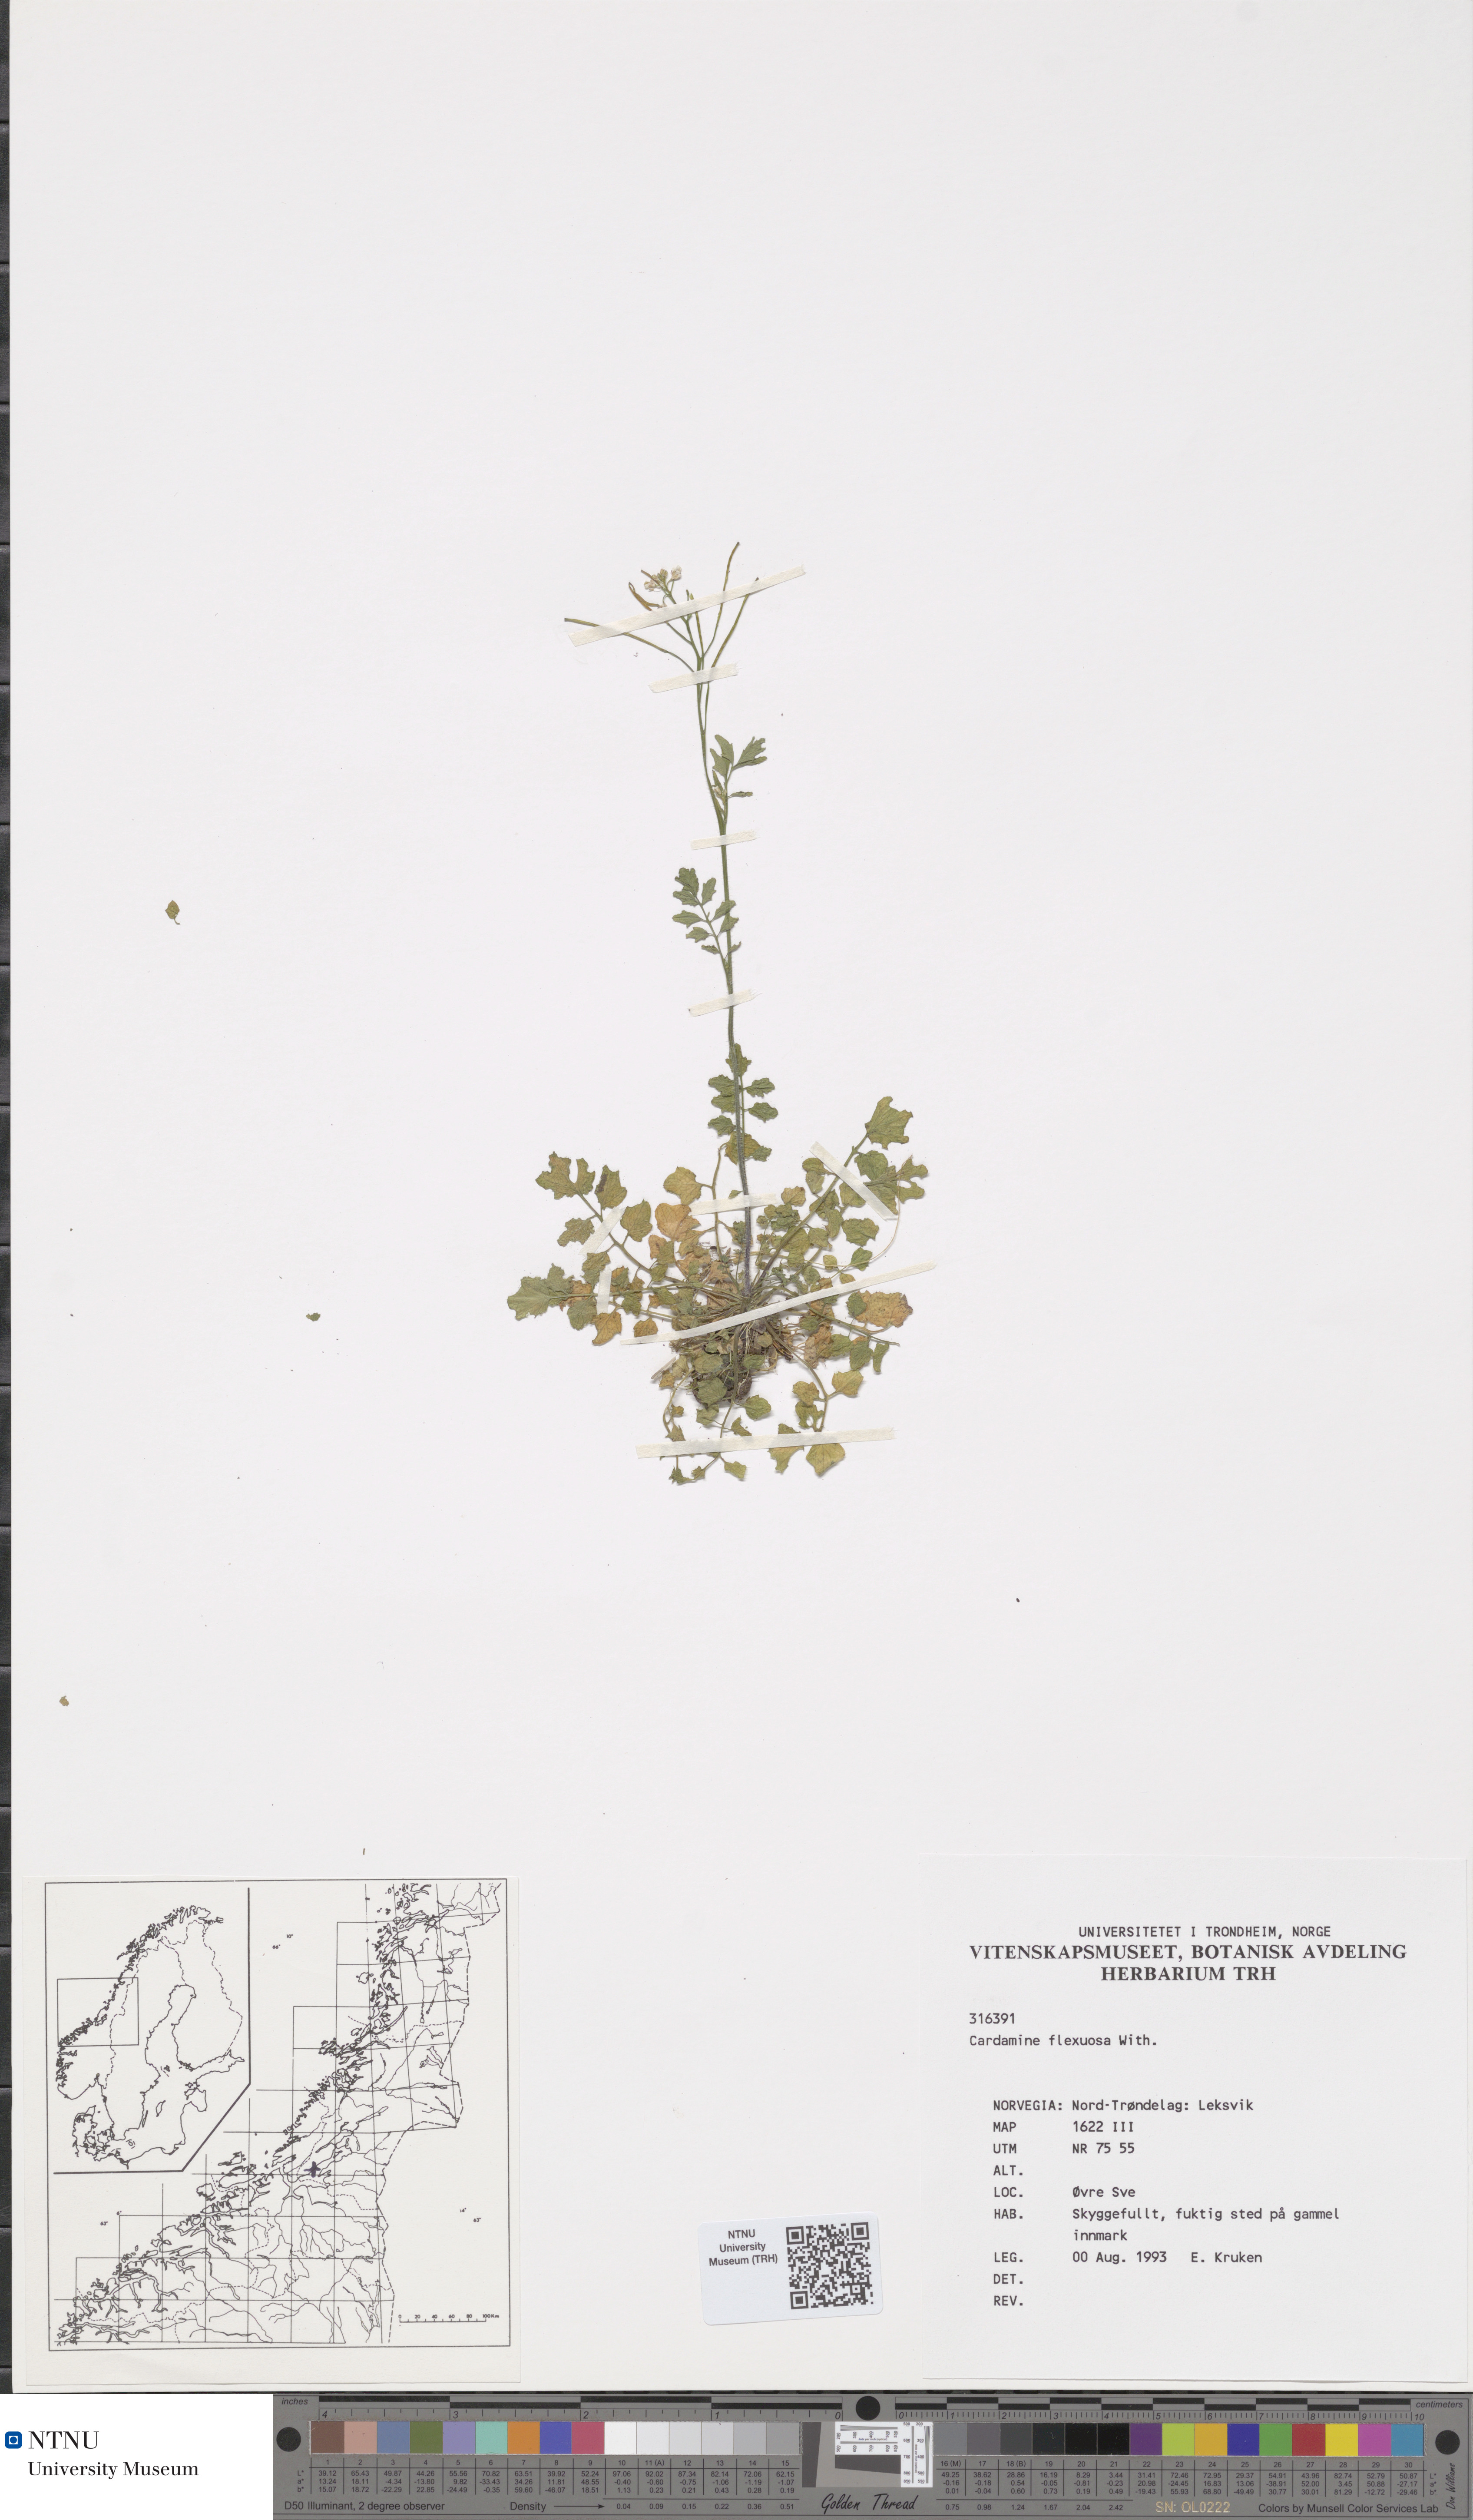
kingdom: Plantae
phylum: Tracheophyta
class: Magnoliopsida
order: Brassicales
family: Brassicaceae
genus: Cardamine
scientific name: Cardamine flexuosa
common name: Woodland bittercress
